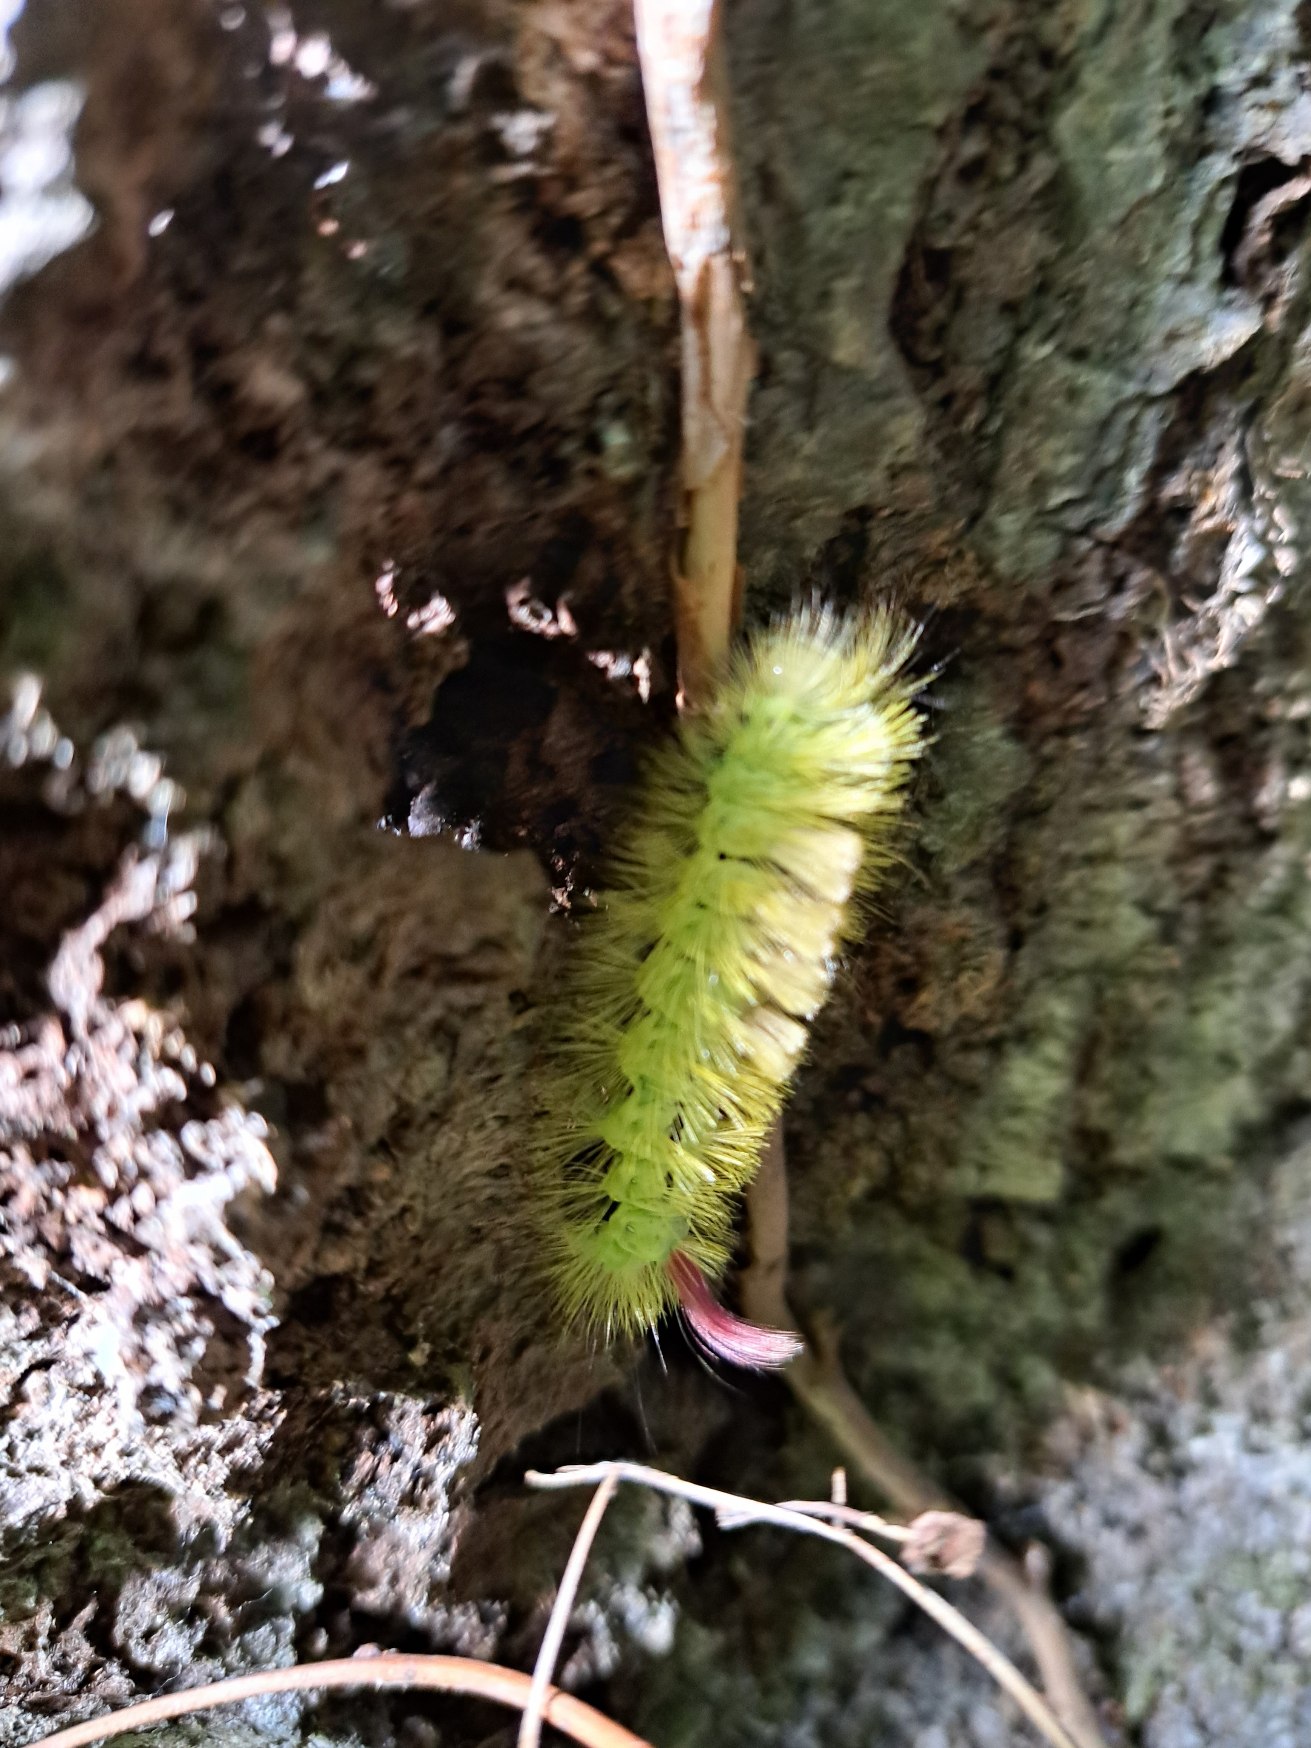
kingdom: Animalia
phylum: Arthropoda
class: Insecta
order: Lepidoptera
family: Erebidae
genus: Calliteara
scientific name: Calliteara pudibunda
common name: Bøgenonne
